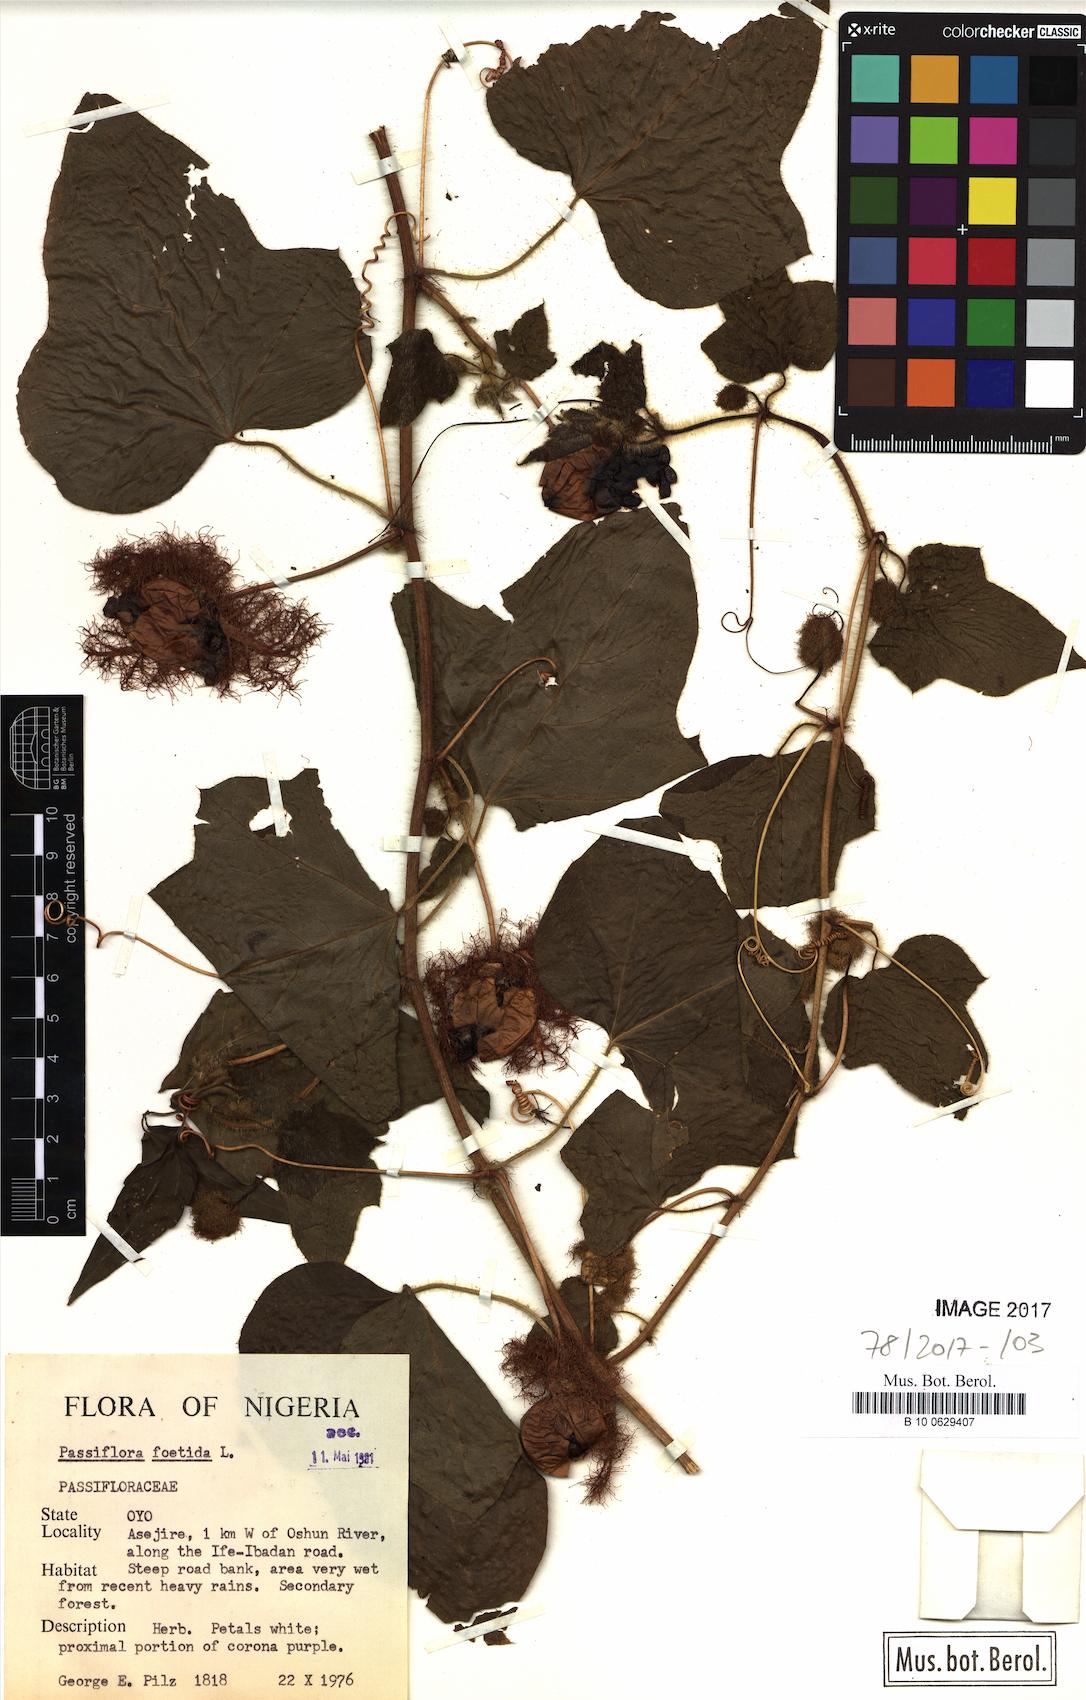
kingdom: Plantae
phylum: Tracheophyta
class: Magnoliopsida
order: Malpighiales
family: Passifloraceae
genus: Passiflora
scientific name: Passiflora foetida
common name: Fetid passionflower
